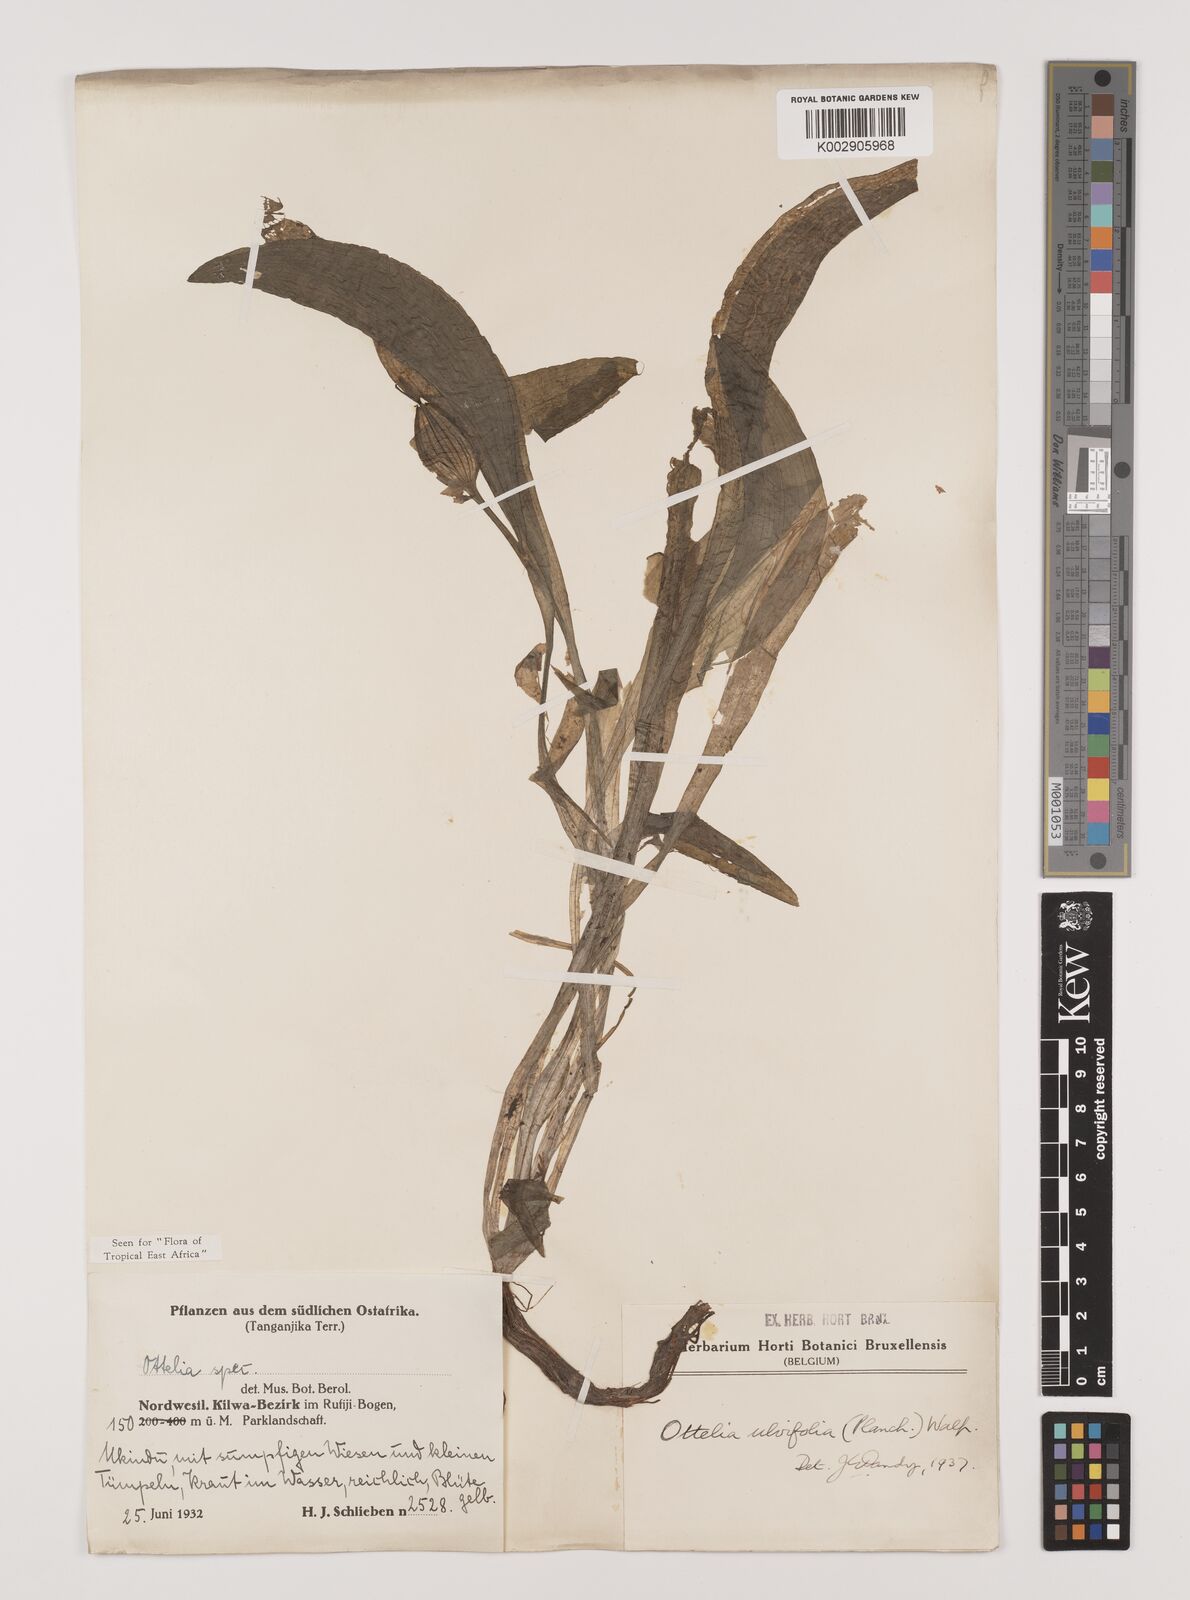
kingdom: Plantae
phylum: Tracheophyta
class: Liliopsida
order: Alismatales
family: Hydrocharitaceae
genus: Ottelia
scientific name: Ottelia ulvifolia
